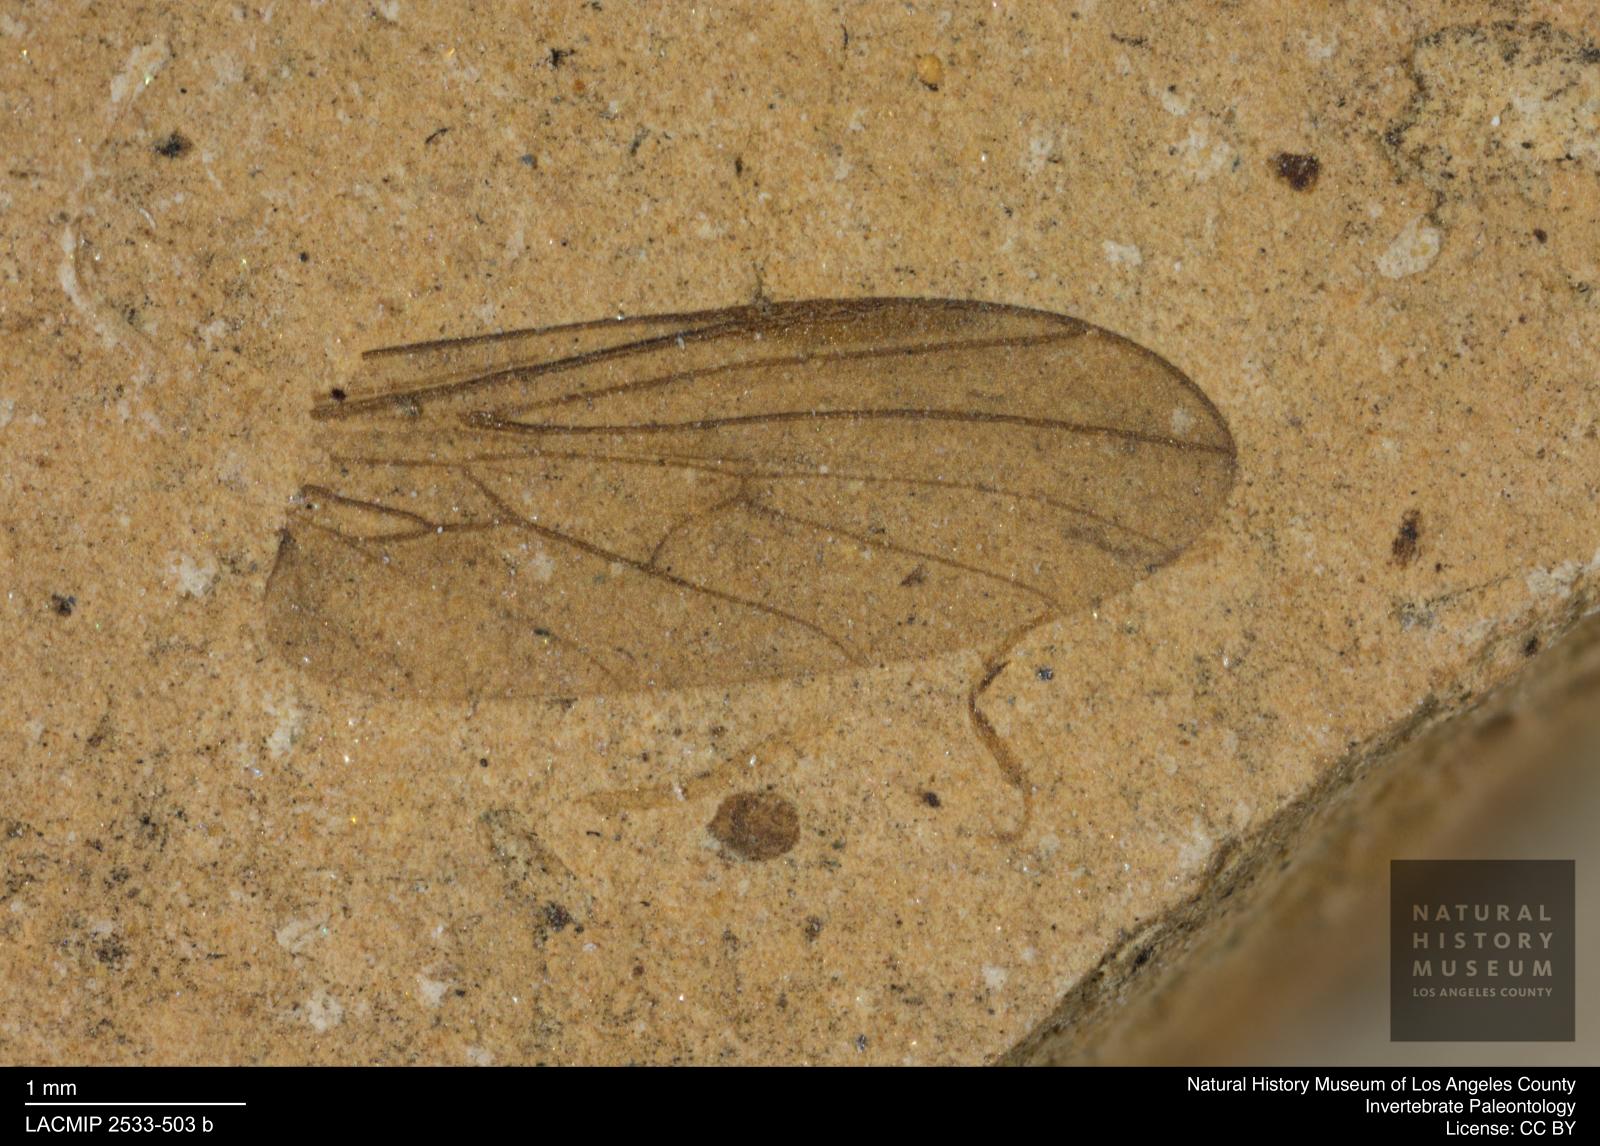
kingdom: Animalia
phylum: Arthropoda
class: Insecta
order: Diptera
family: Empididae
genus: Rhamphomyia
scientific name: Rhamphomyia rottensis
